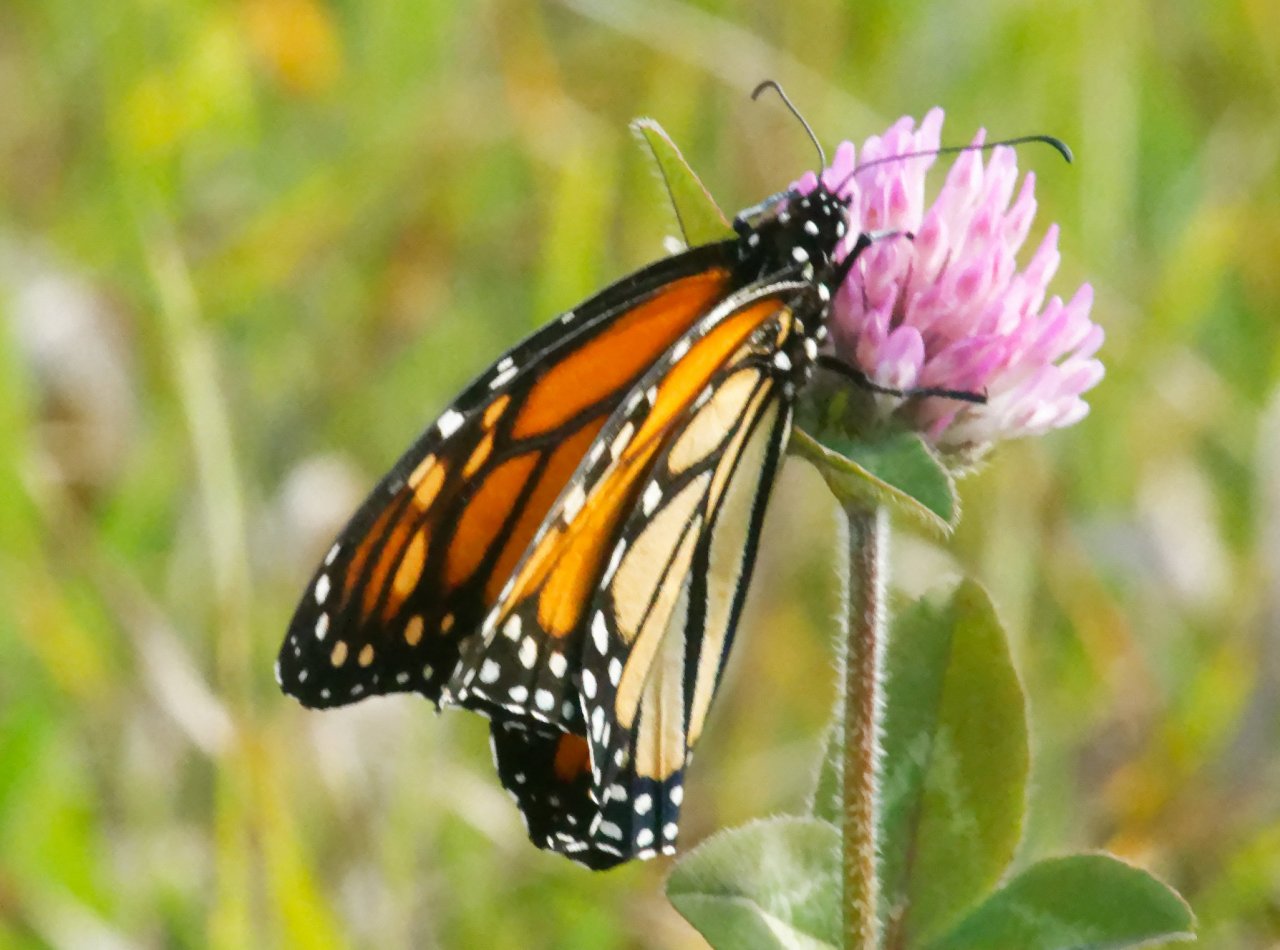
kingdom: Animalia
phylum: Arthropoda
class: Insecta
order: Lepidoptera
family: Nymphalidae
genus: Danaus
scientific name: Danaus plexippus
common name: Monarch
